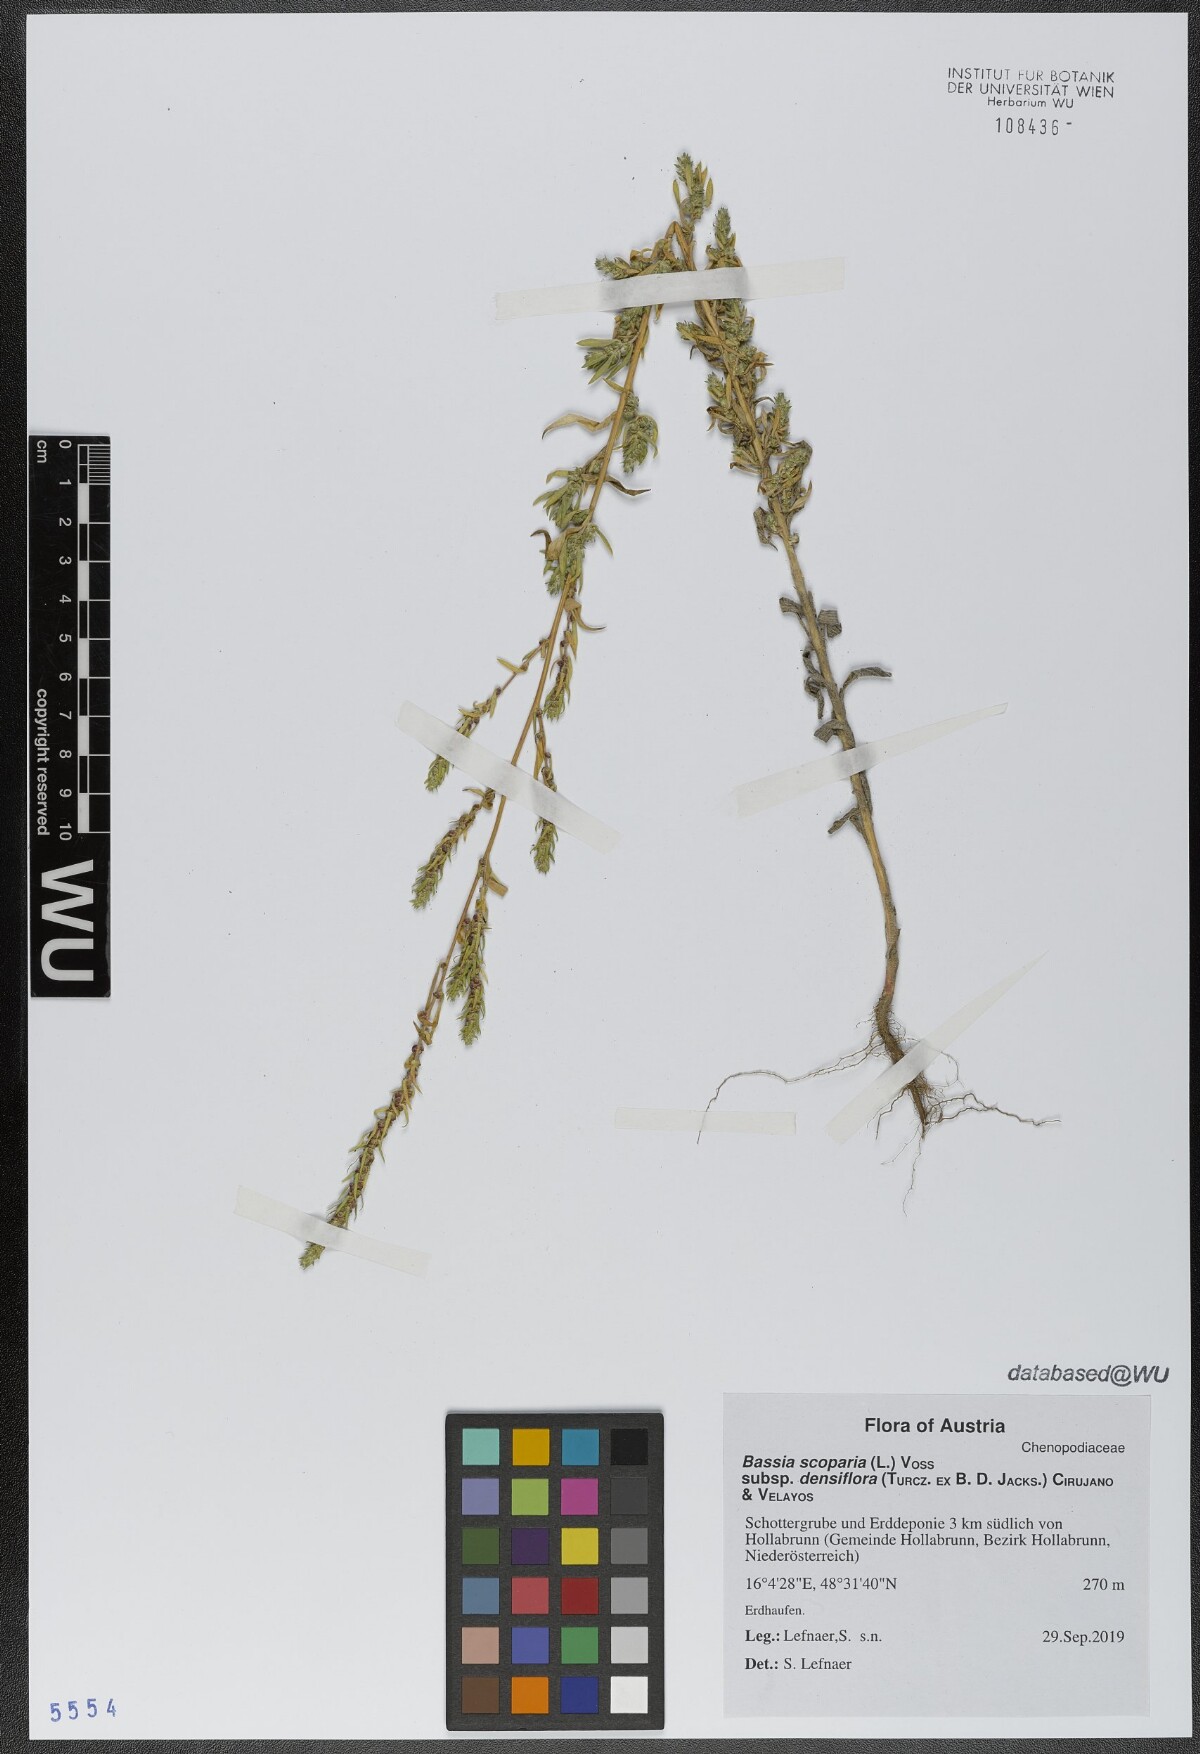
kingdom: Plantae
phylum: Tracheophyta
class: Magnoliopsida
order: Caryophyllales
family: Amaranthaceae
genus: Bassia
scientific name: Bassia scoparia
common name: Belvedere
